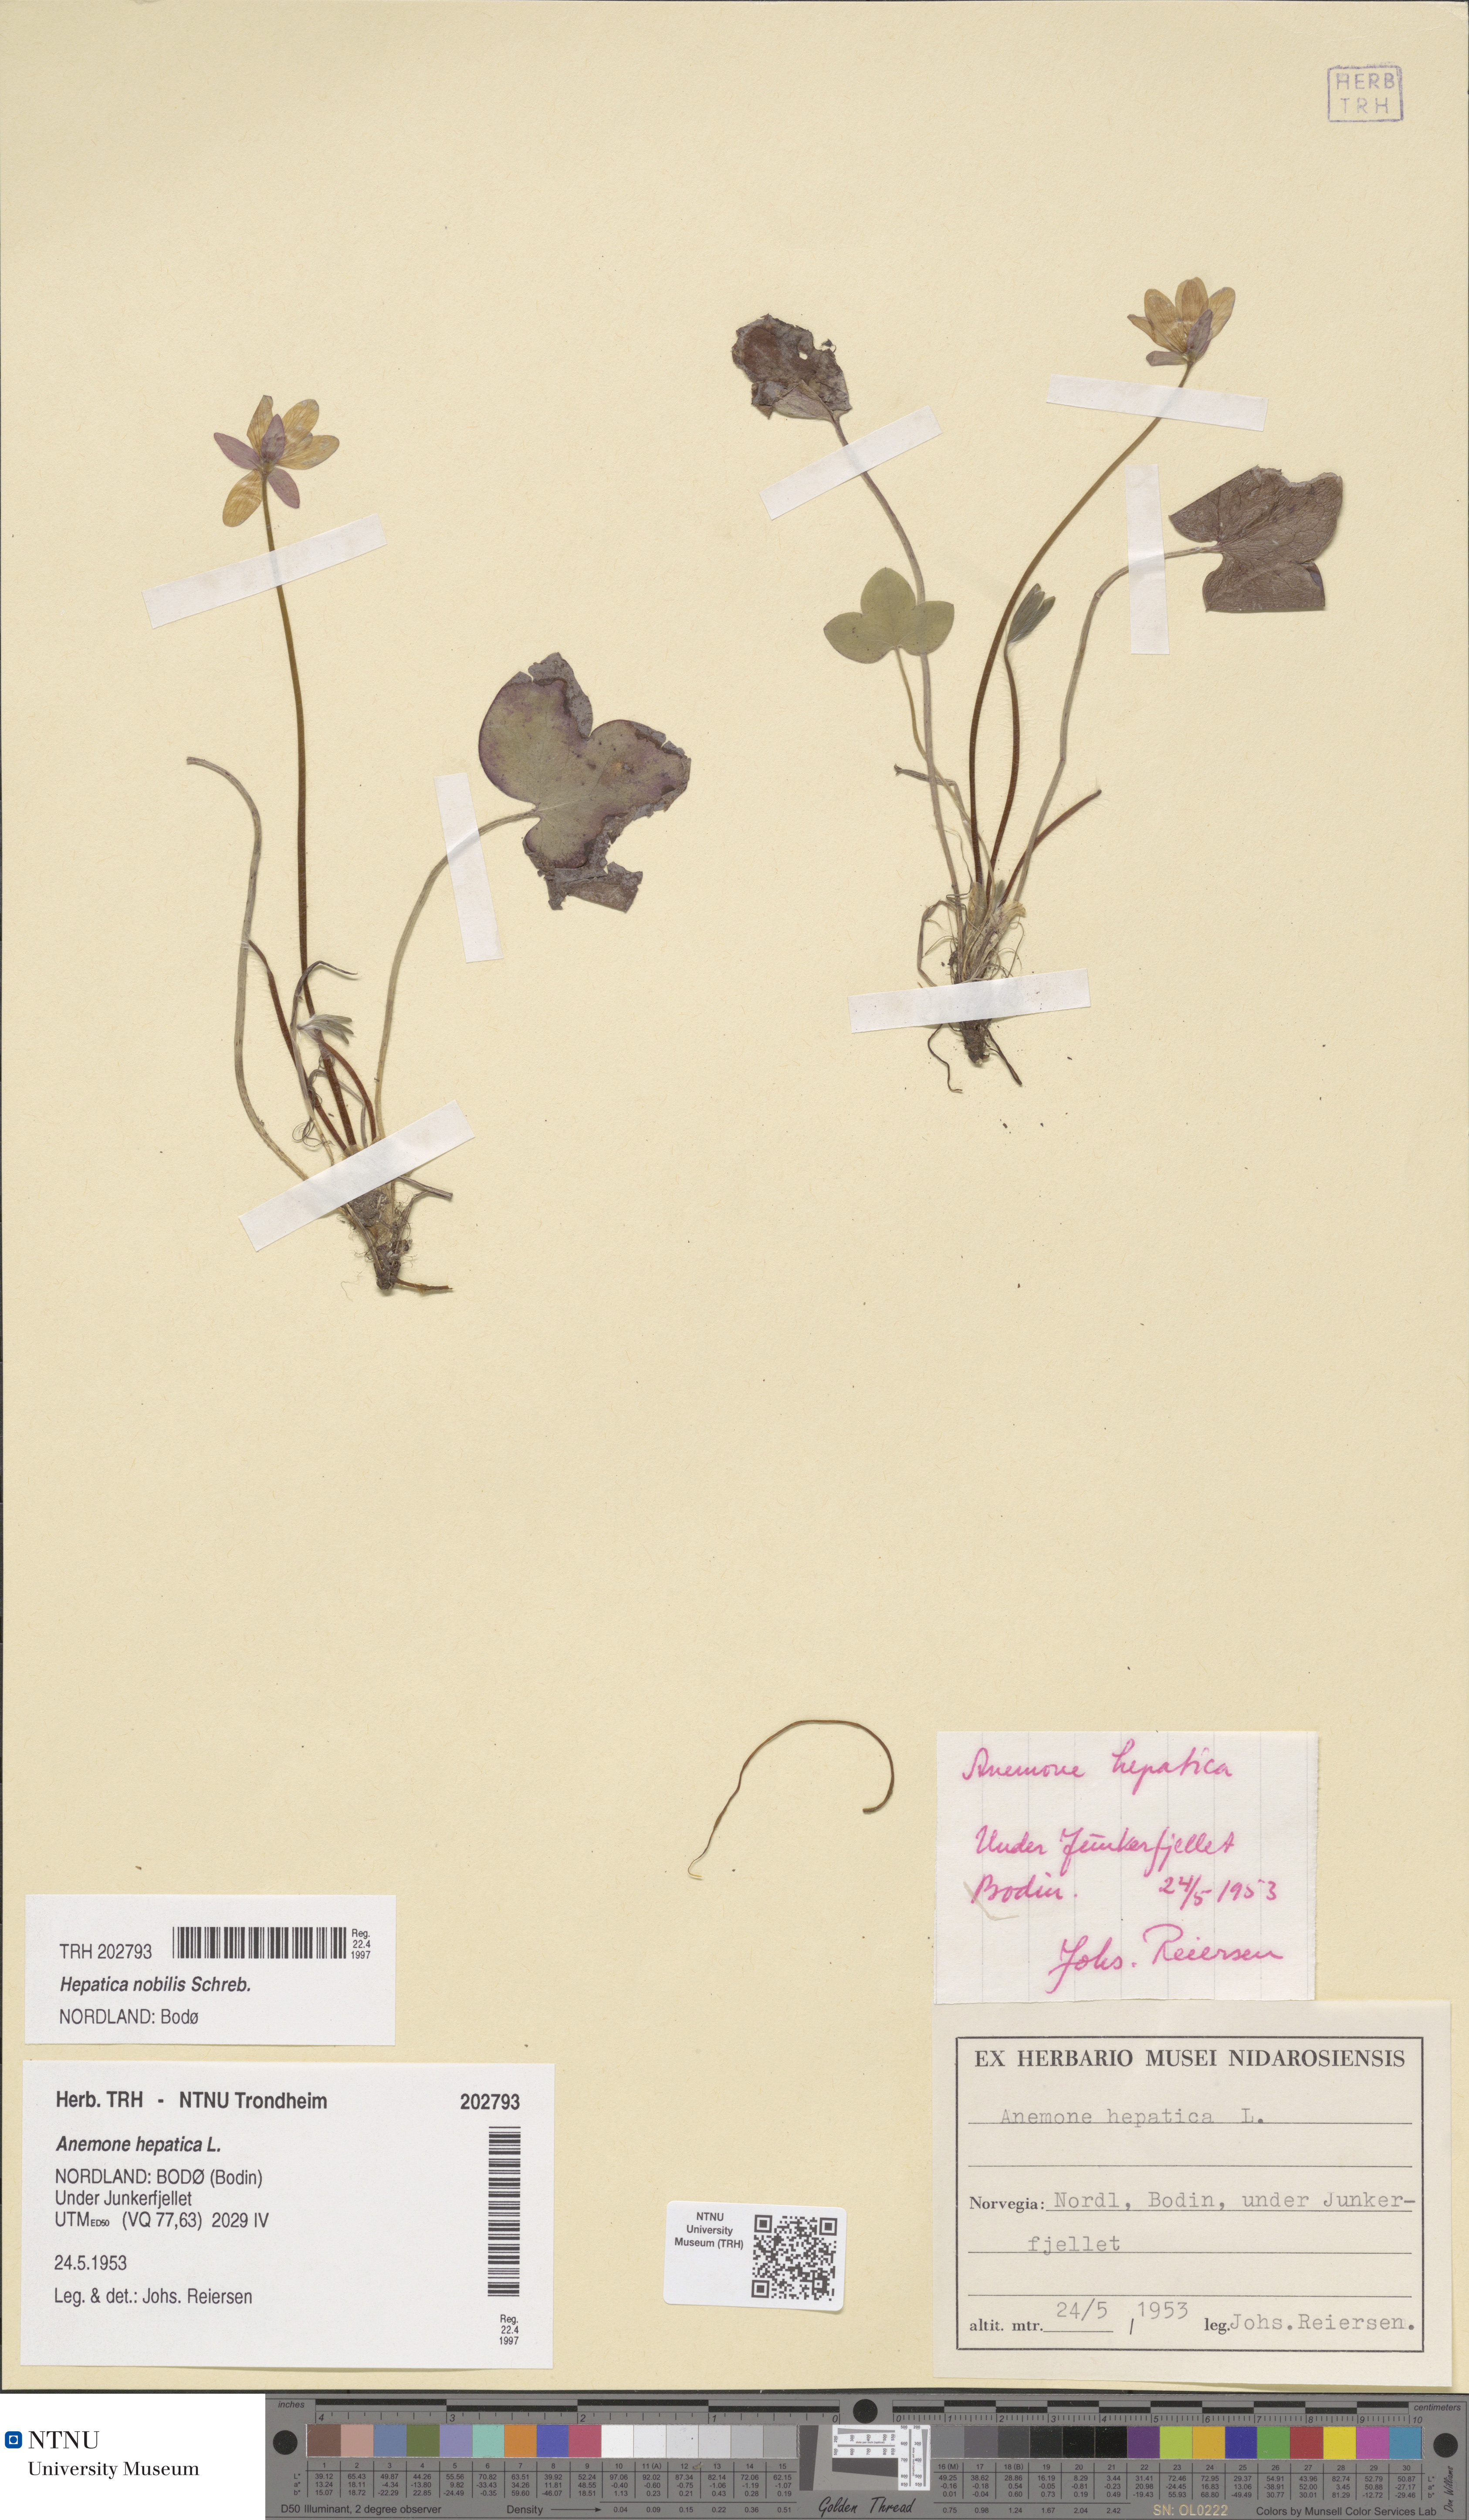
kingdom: Plantae
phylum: Tracheophyta
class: Magnoliopsida
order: Ranunculales
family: Ranunculaceae
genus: Hepatica
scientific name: Hepatica nobilis
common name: Liverleaf
